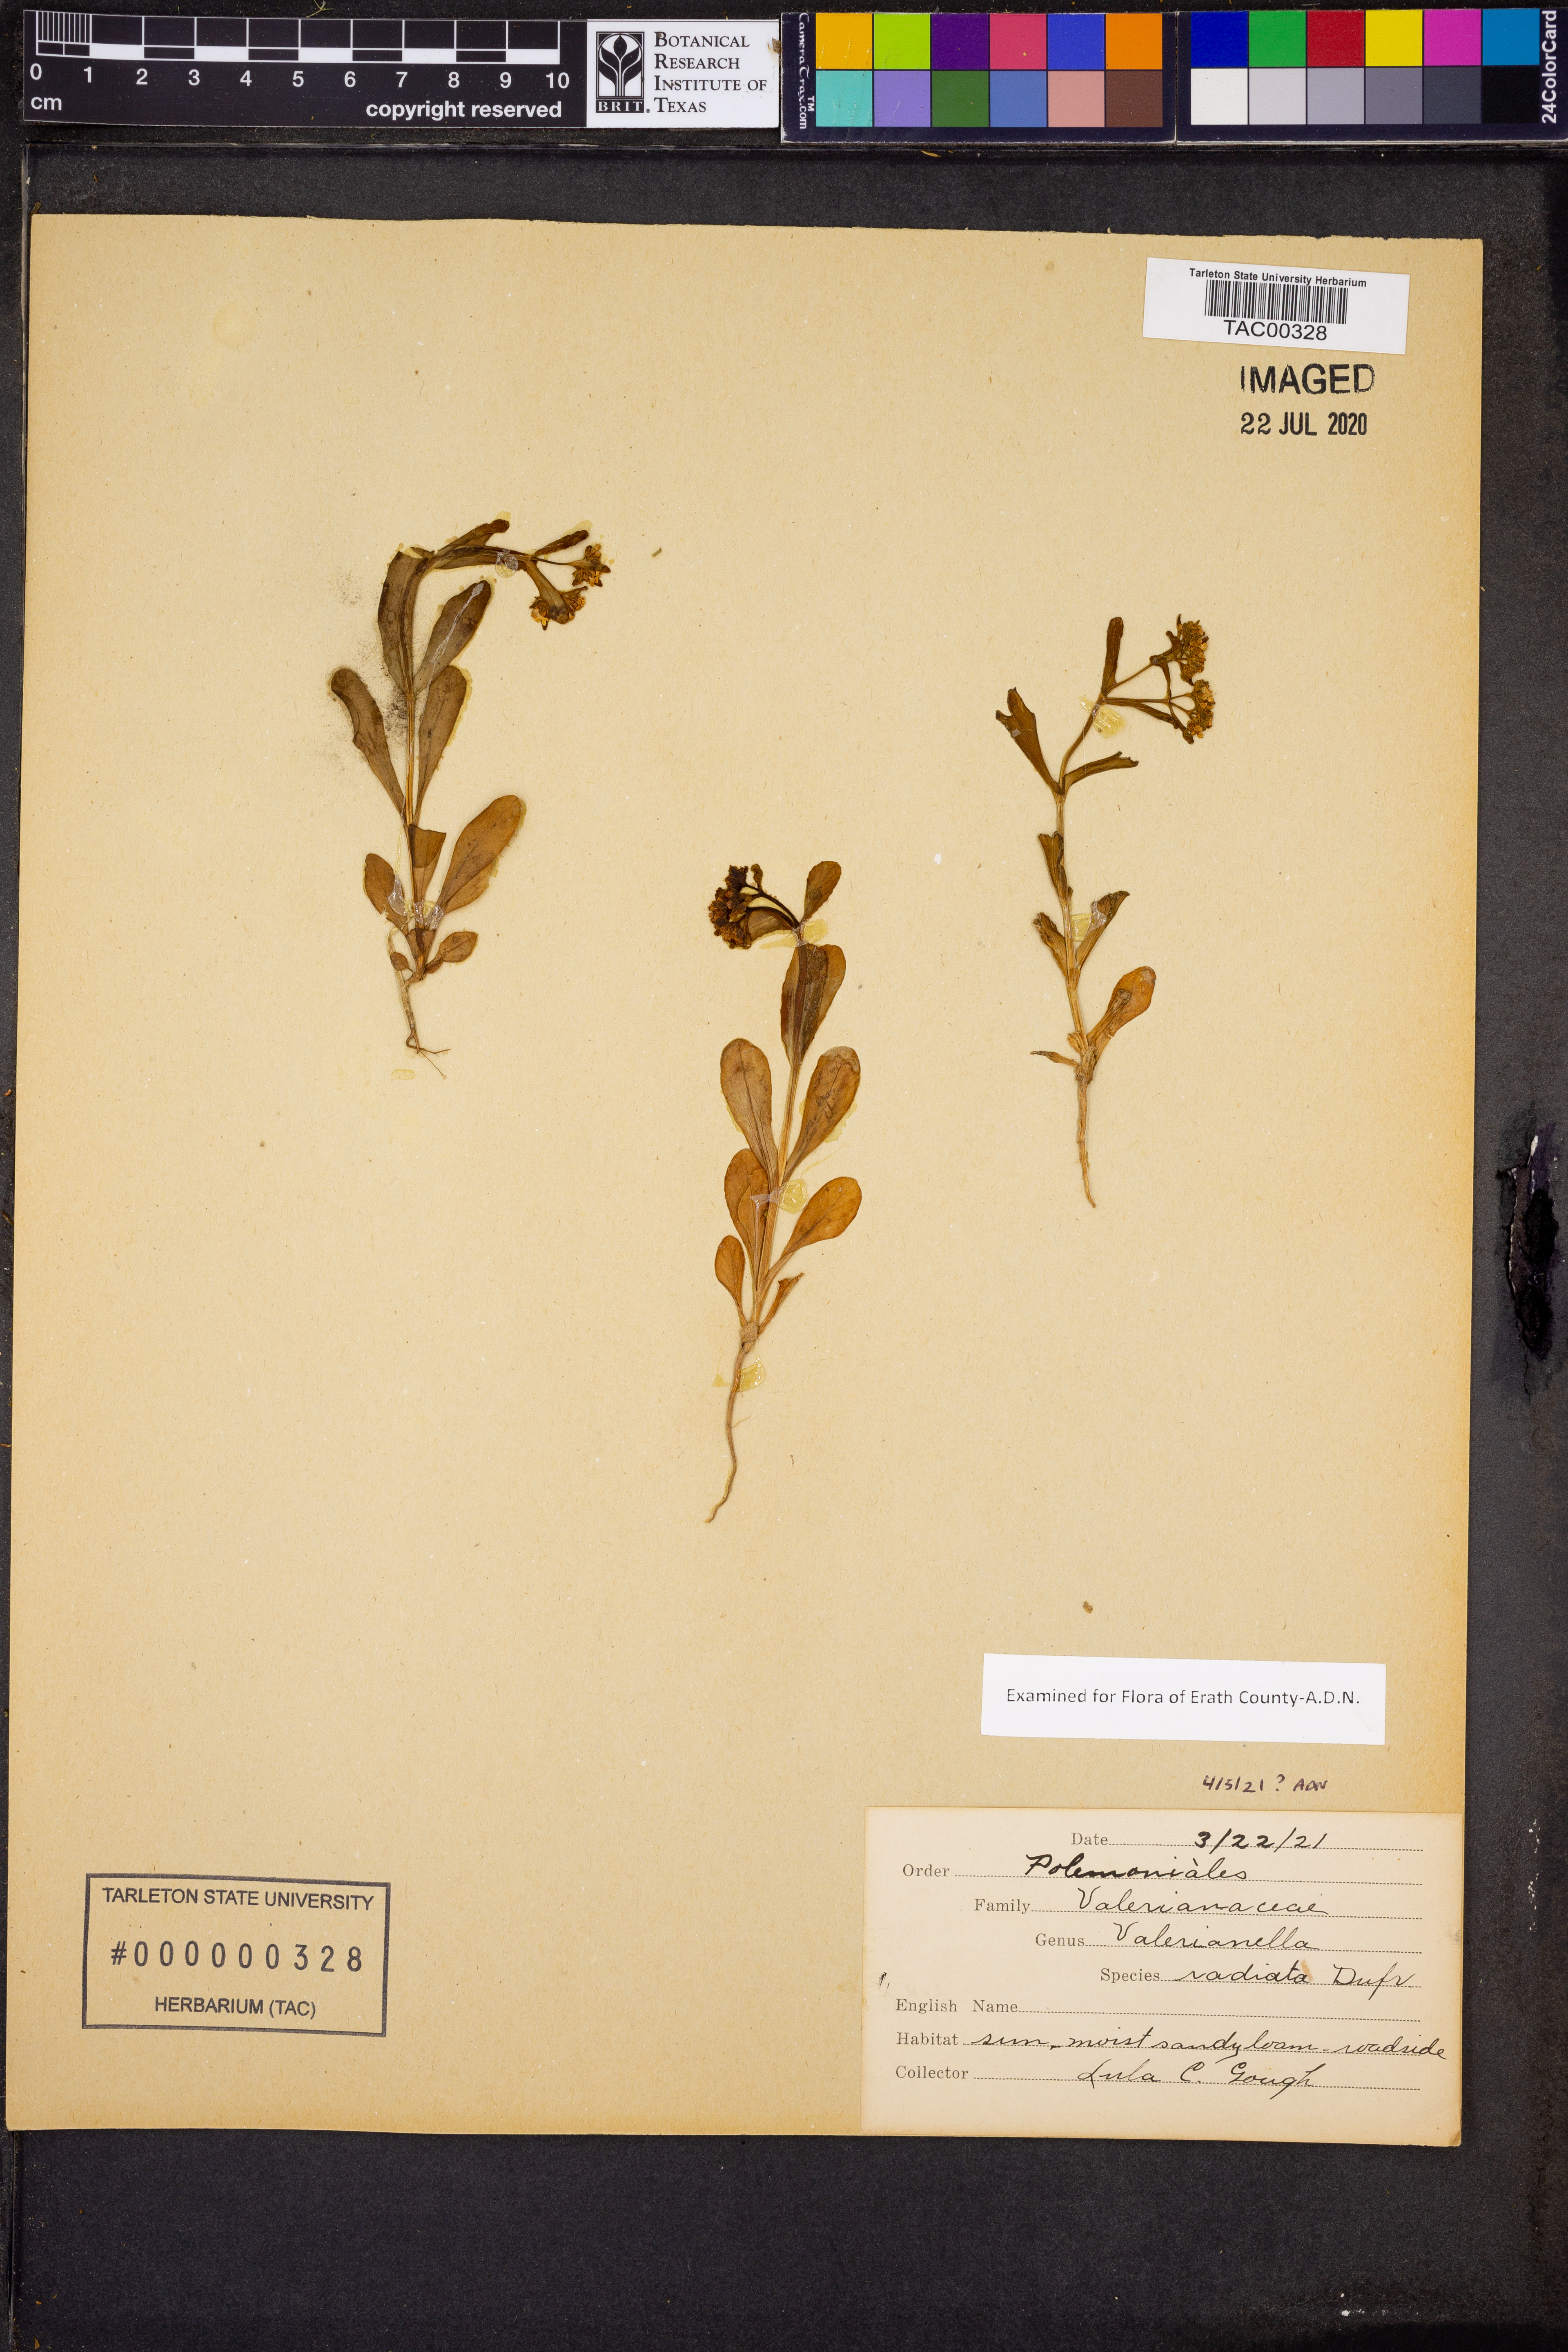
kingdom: Plantae
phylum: Tracheophyta
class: Magnoliopsida
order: Dipsacales
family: Caprifoliaceae
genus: Valerianella
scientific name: Valerianella radiata
